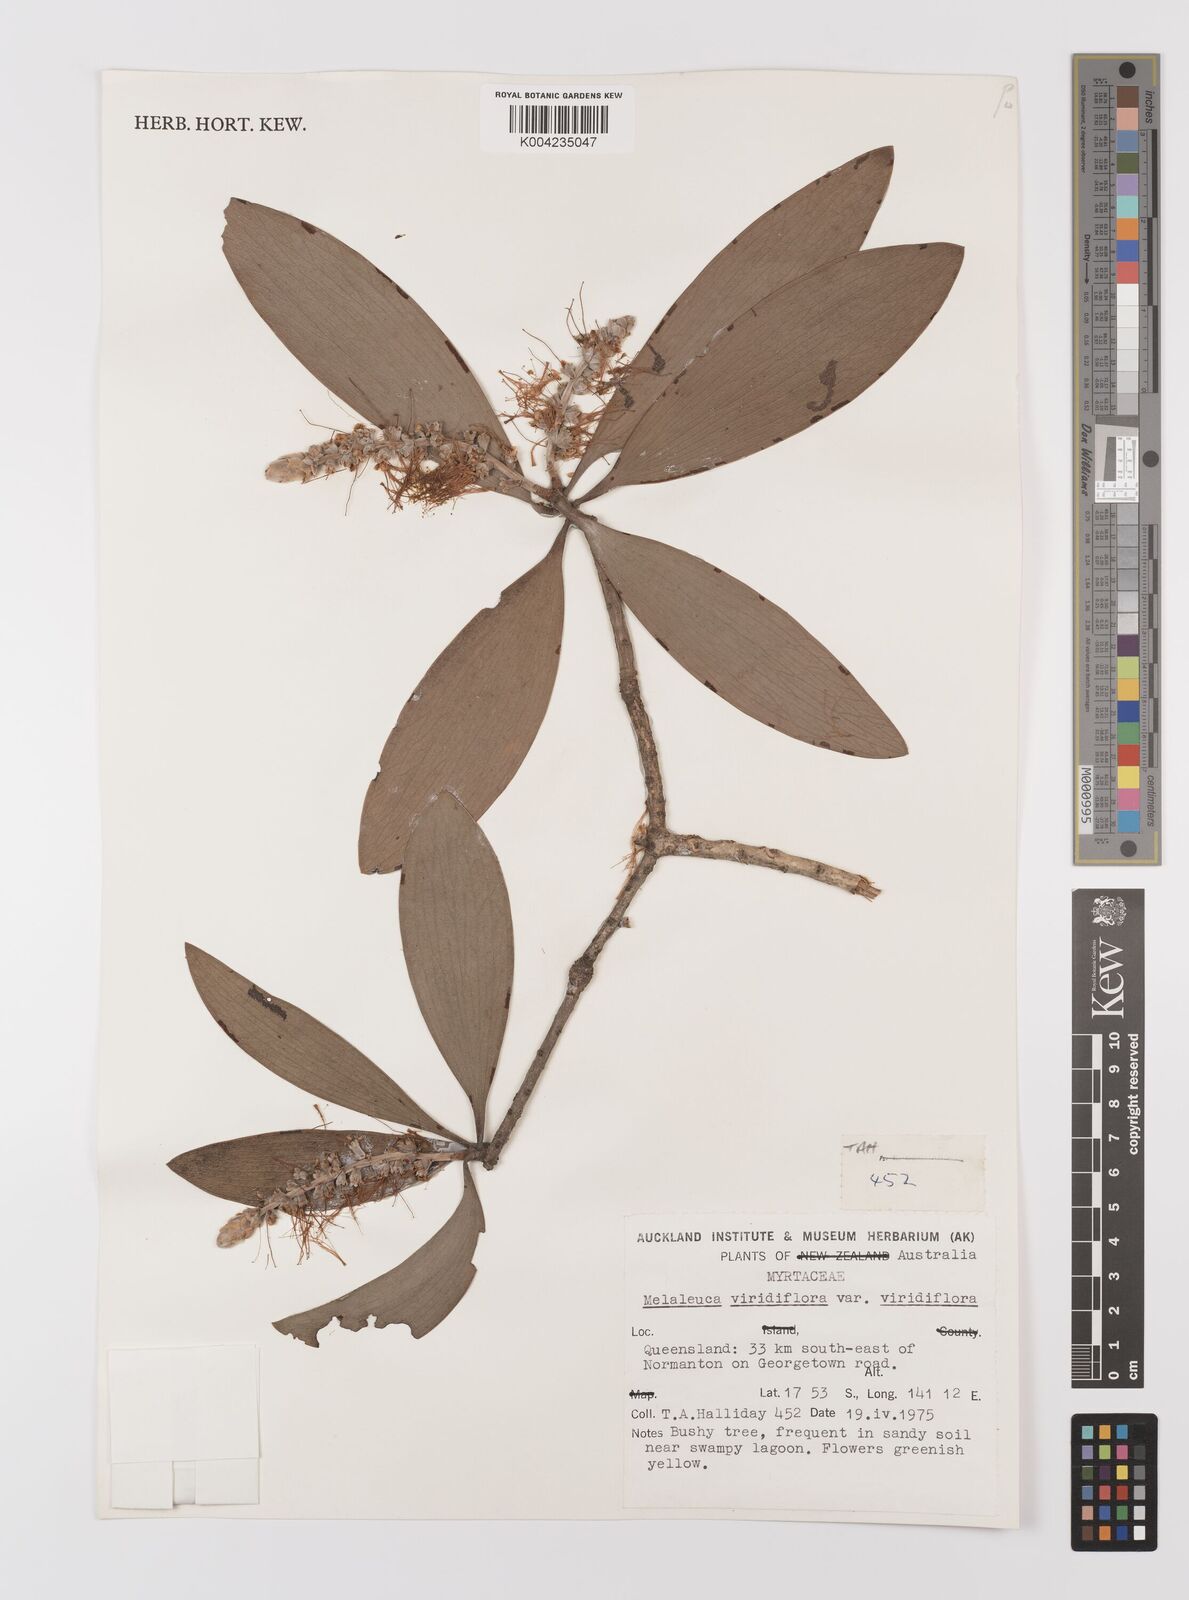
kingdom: Plantae
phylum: Tracheophyta
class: Magnoliopsida
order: Myrtales
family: Myrtaceae
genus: Melaleuca
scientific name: Melaleuca viridiflora
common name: Brown-leaved paperbark
